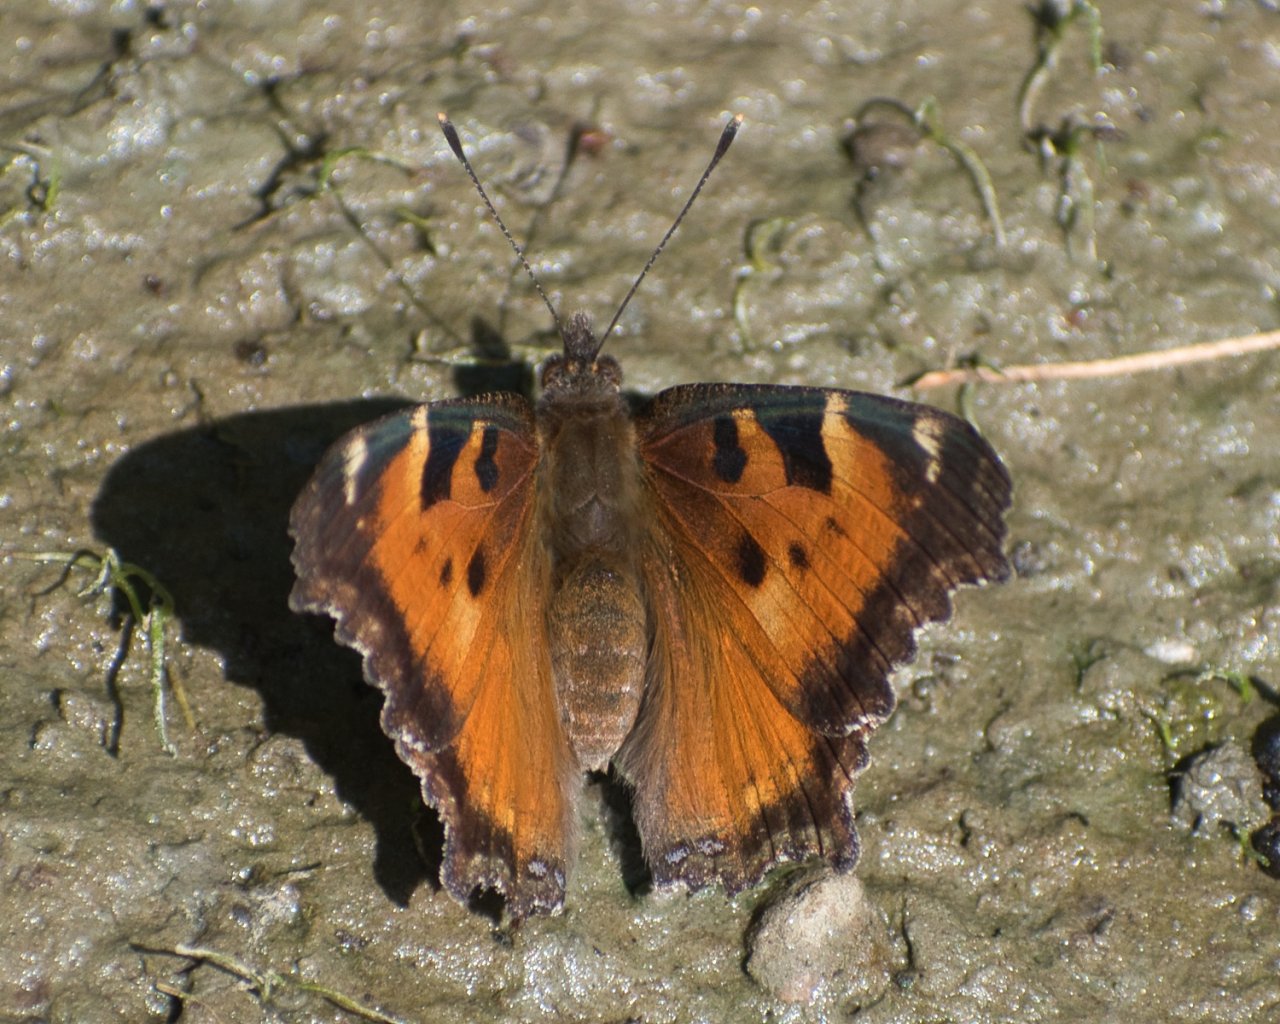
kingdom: Animalia
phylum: Arthropoda
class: Insecta
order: Lepidoptera
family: Nymphalidae
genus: Nymphalis
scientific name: Nymphalis californica
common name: California Tortoiseshell
